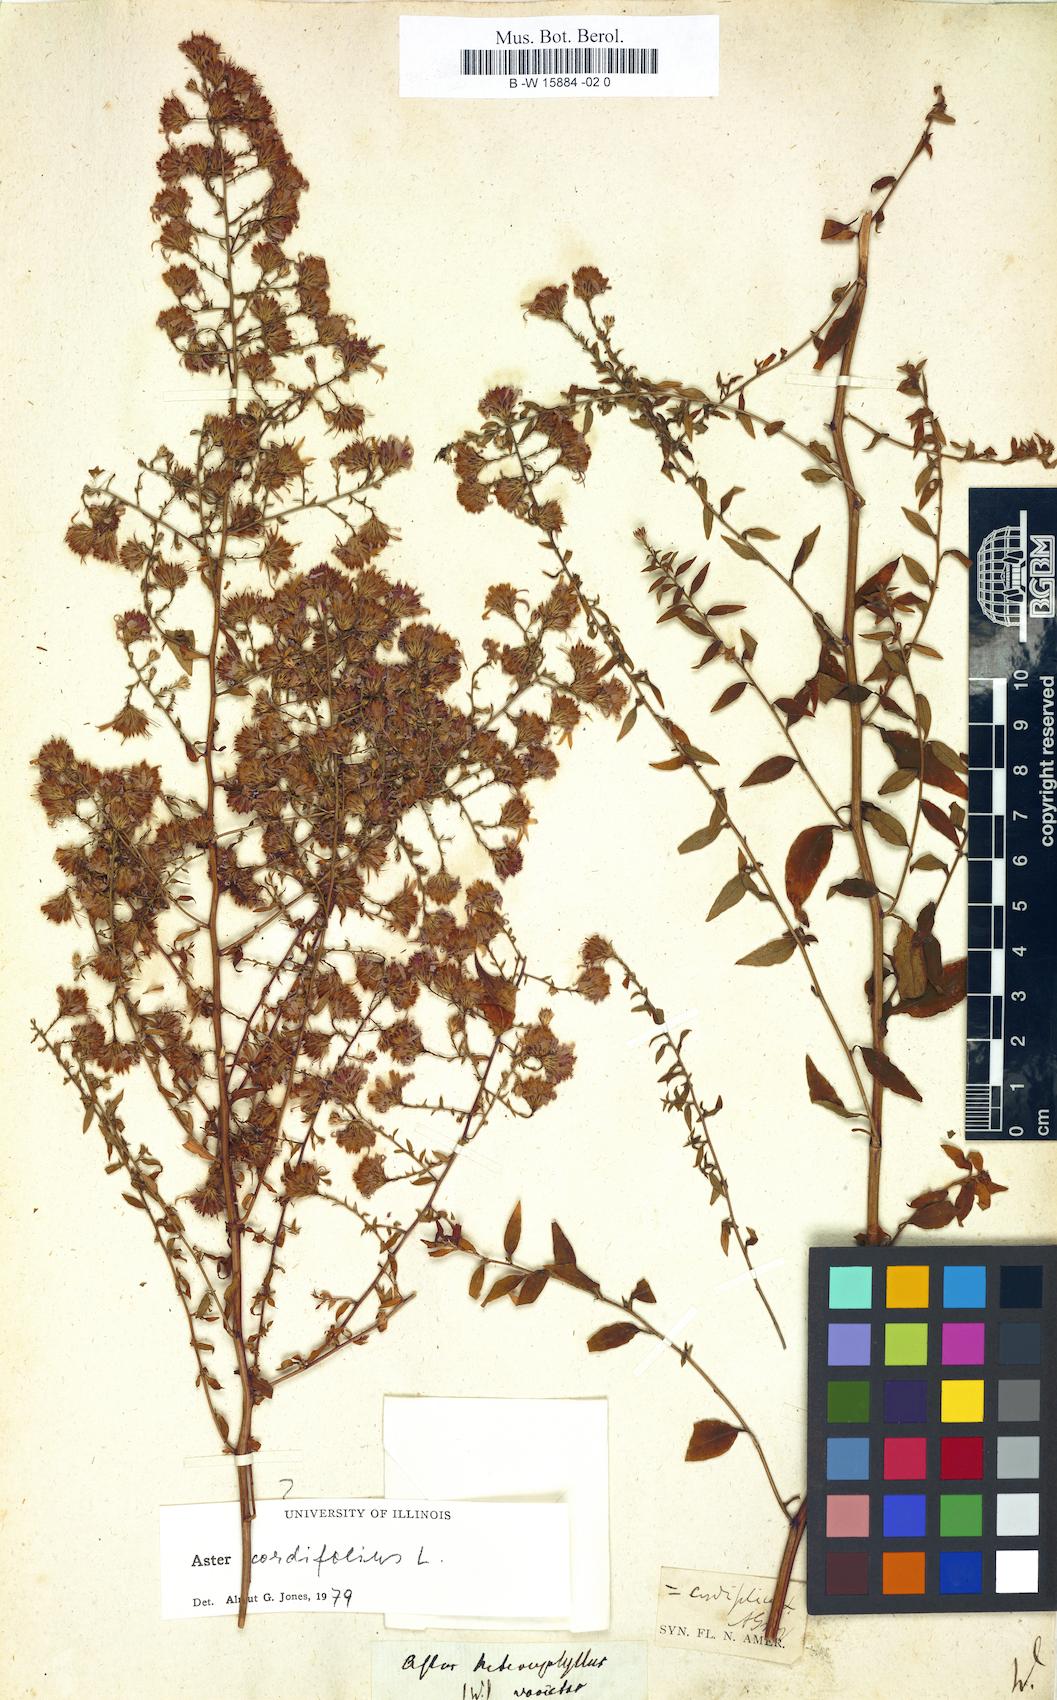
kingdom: Plantae
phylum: Tracheophyta
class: Magnoliopsida
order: Asterales
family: Asteraceae
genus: Athrixia
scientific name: Athrixia heterophylla
